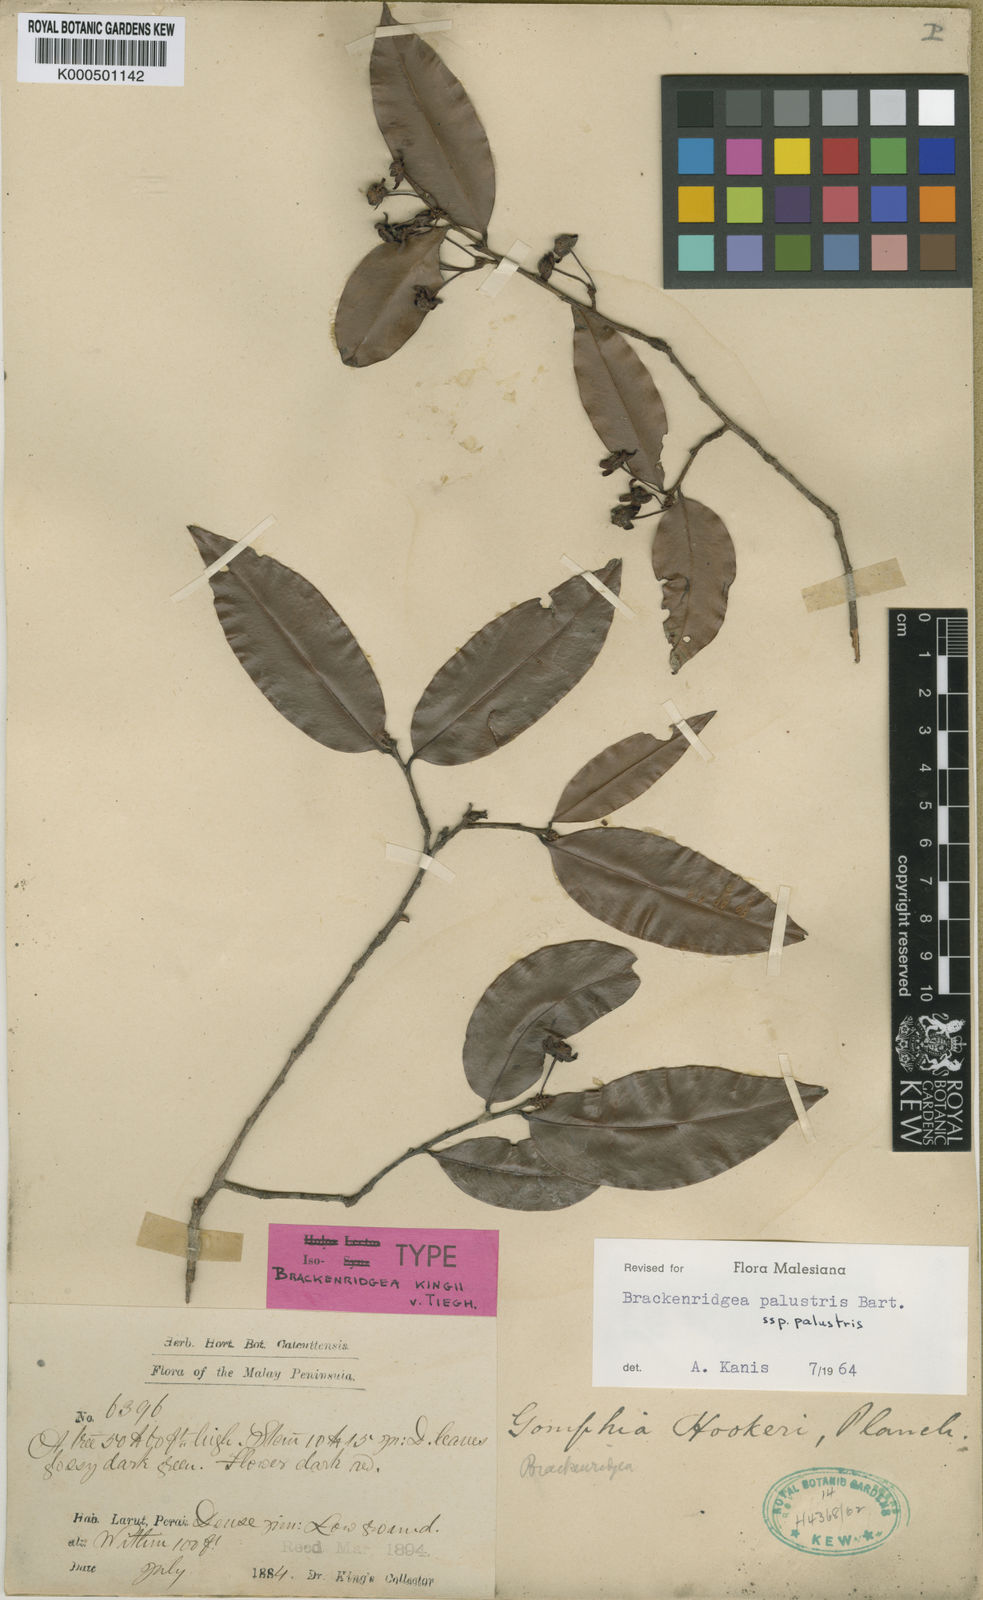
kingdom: Plantae
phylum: Tracheophyta
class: Magnoliopsida
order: Malpighiales
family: Ochnaceae
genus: Brackenridgea
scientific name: Brackenridgea palustris
